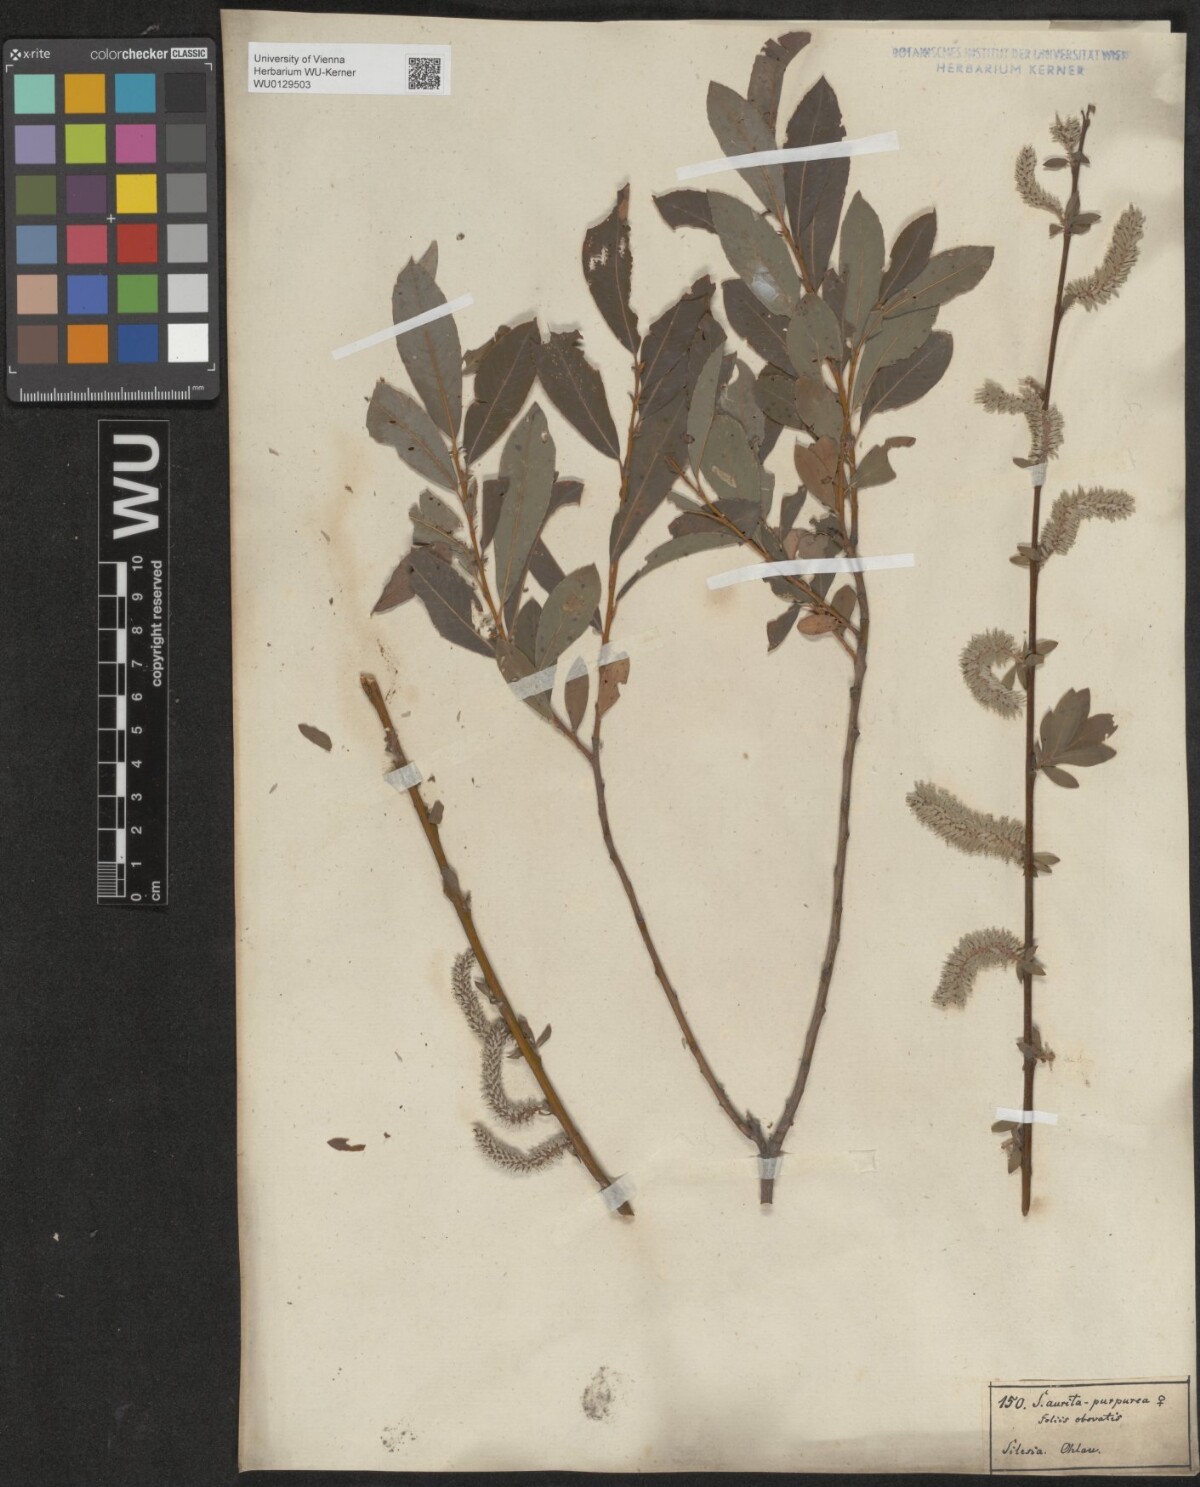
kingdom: Plantae
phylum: Tracheophyta
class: Magnoliopsida
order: Malpighiales
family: Salicaceae
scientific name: Salicaceae
